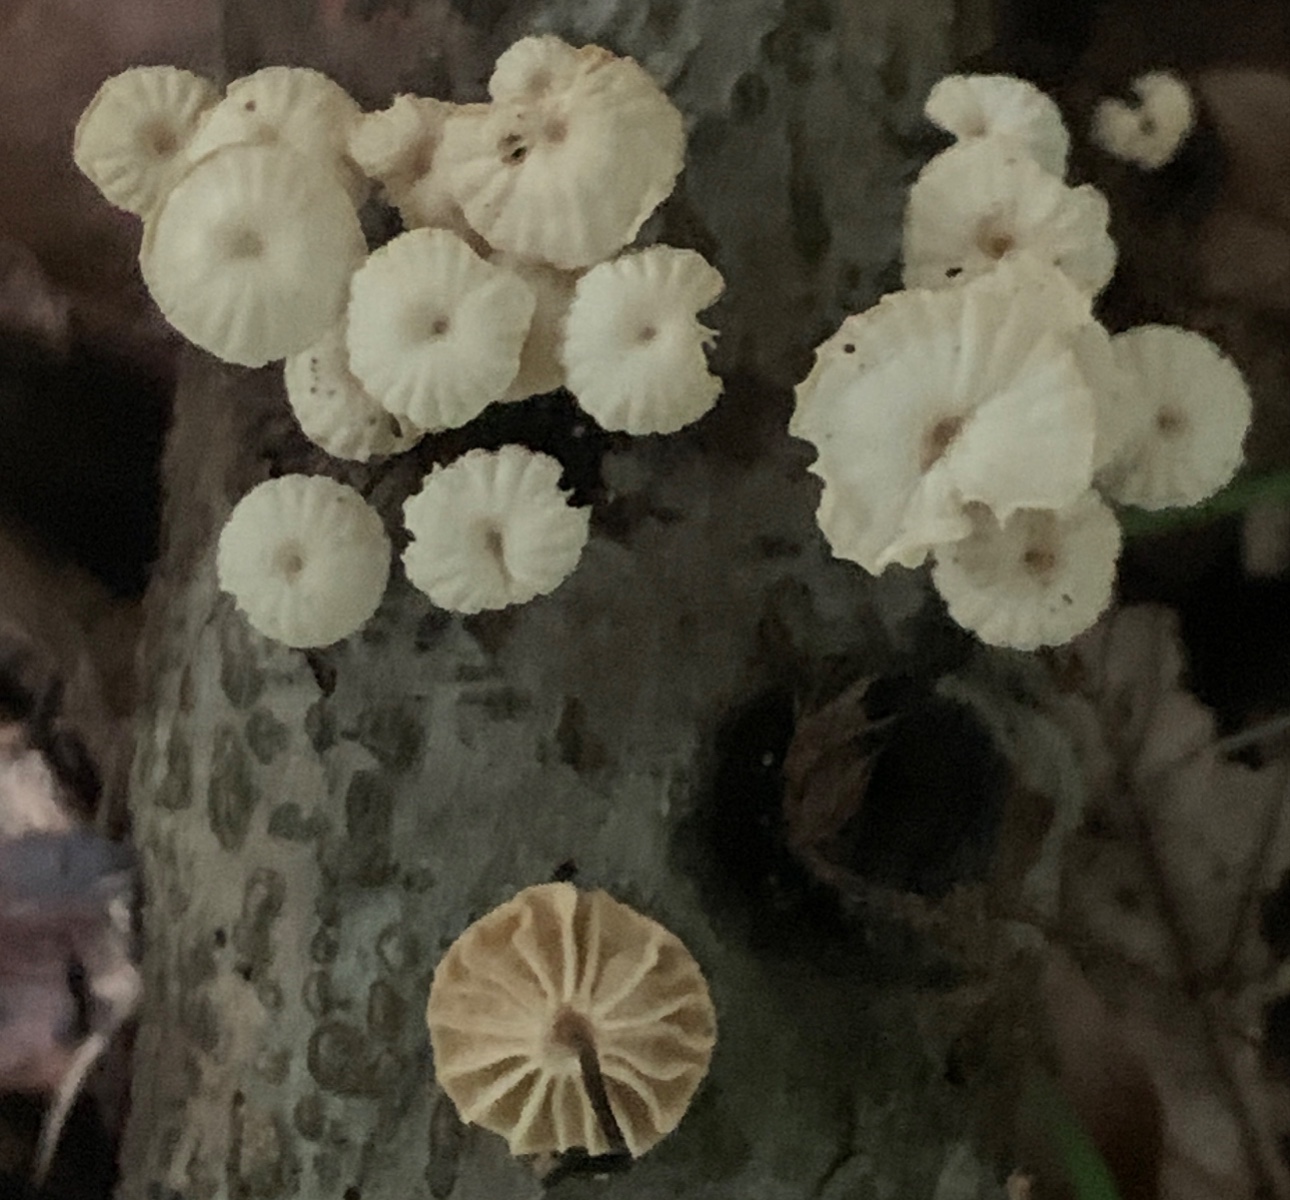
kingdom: Fungi
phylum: Basidiomycota
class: Agaricomycetes
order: Agaricales
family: Marasmiaceae
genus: Marasmius
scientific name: Marasmius rotula
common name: hjul-bruskhat
